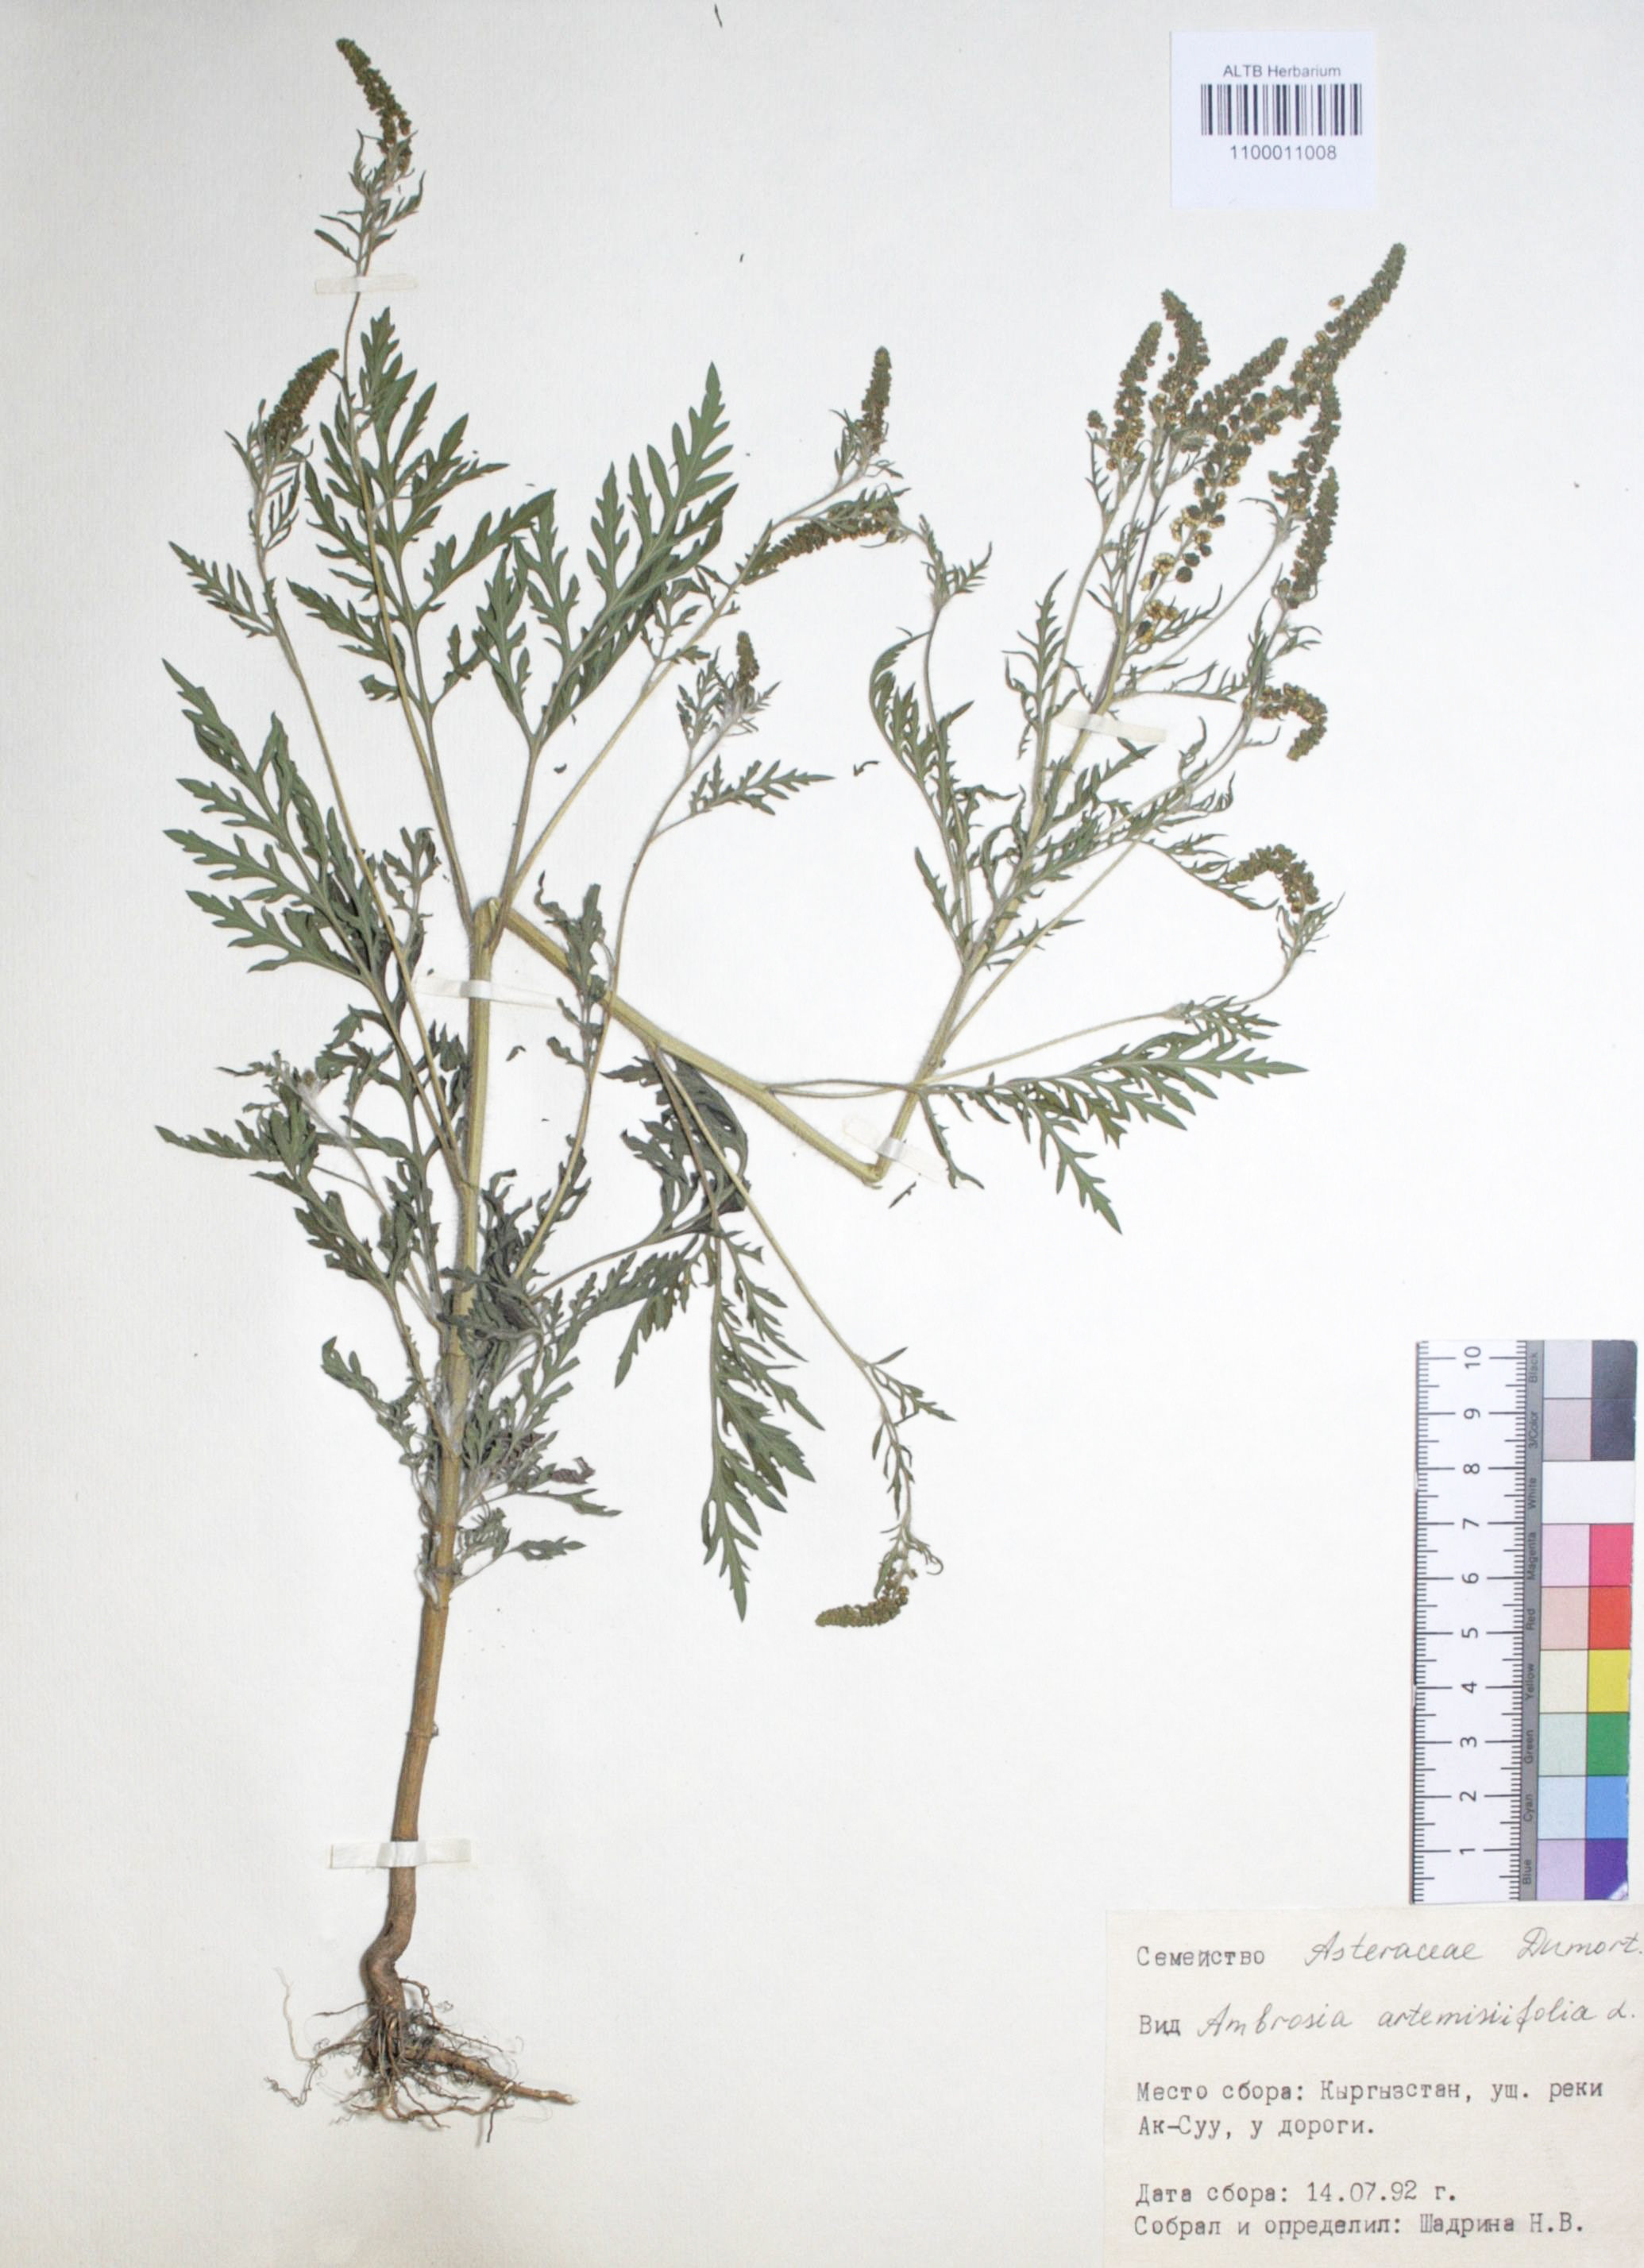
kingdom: Plantae
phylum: Tracheophyta
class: Magnoliopsida
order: Asterales
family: Asteraceae
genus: Ambrosia
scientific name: Ambrosia artemisiifolia
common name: Annual ragweed
